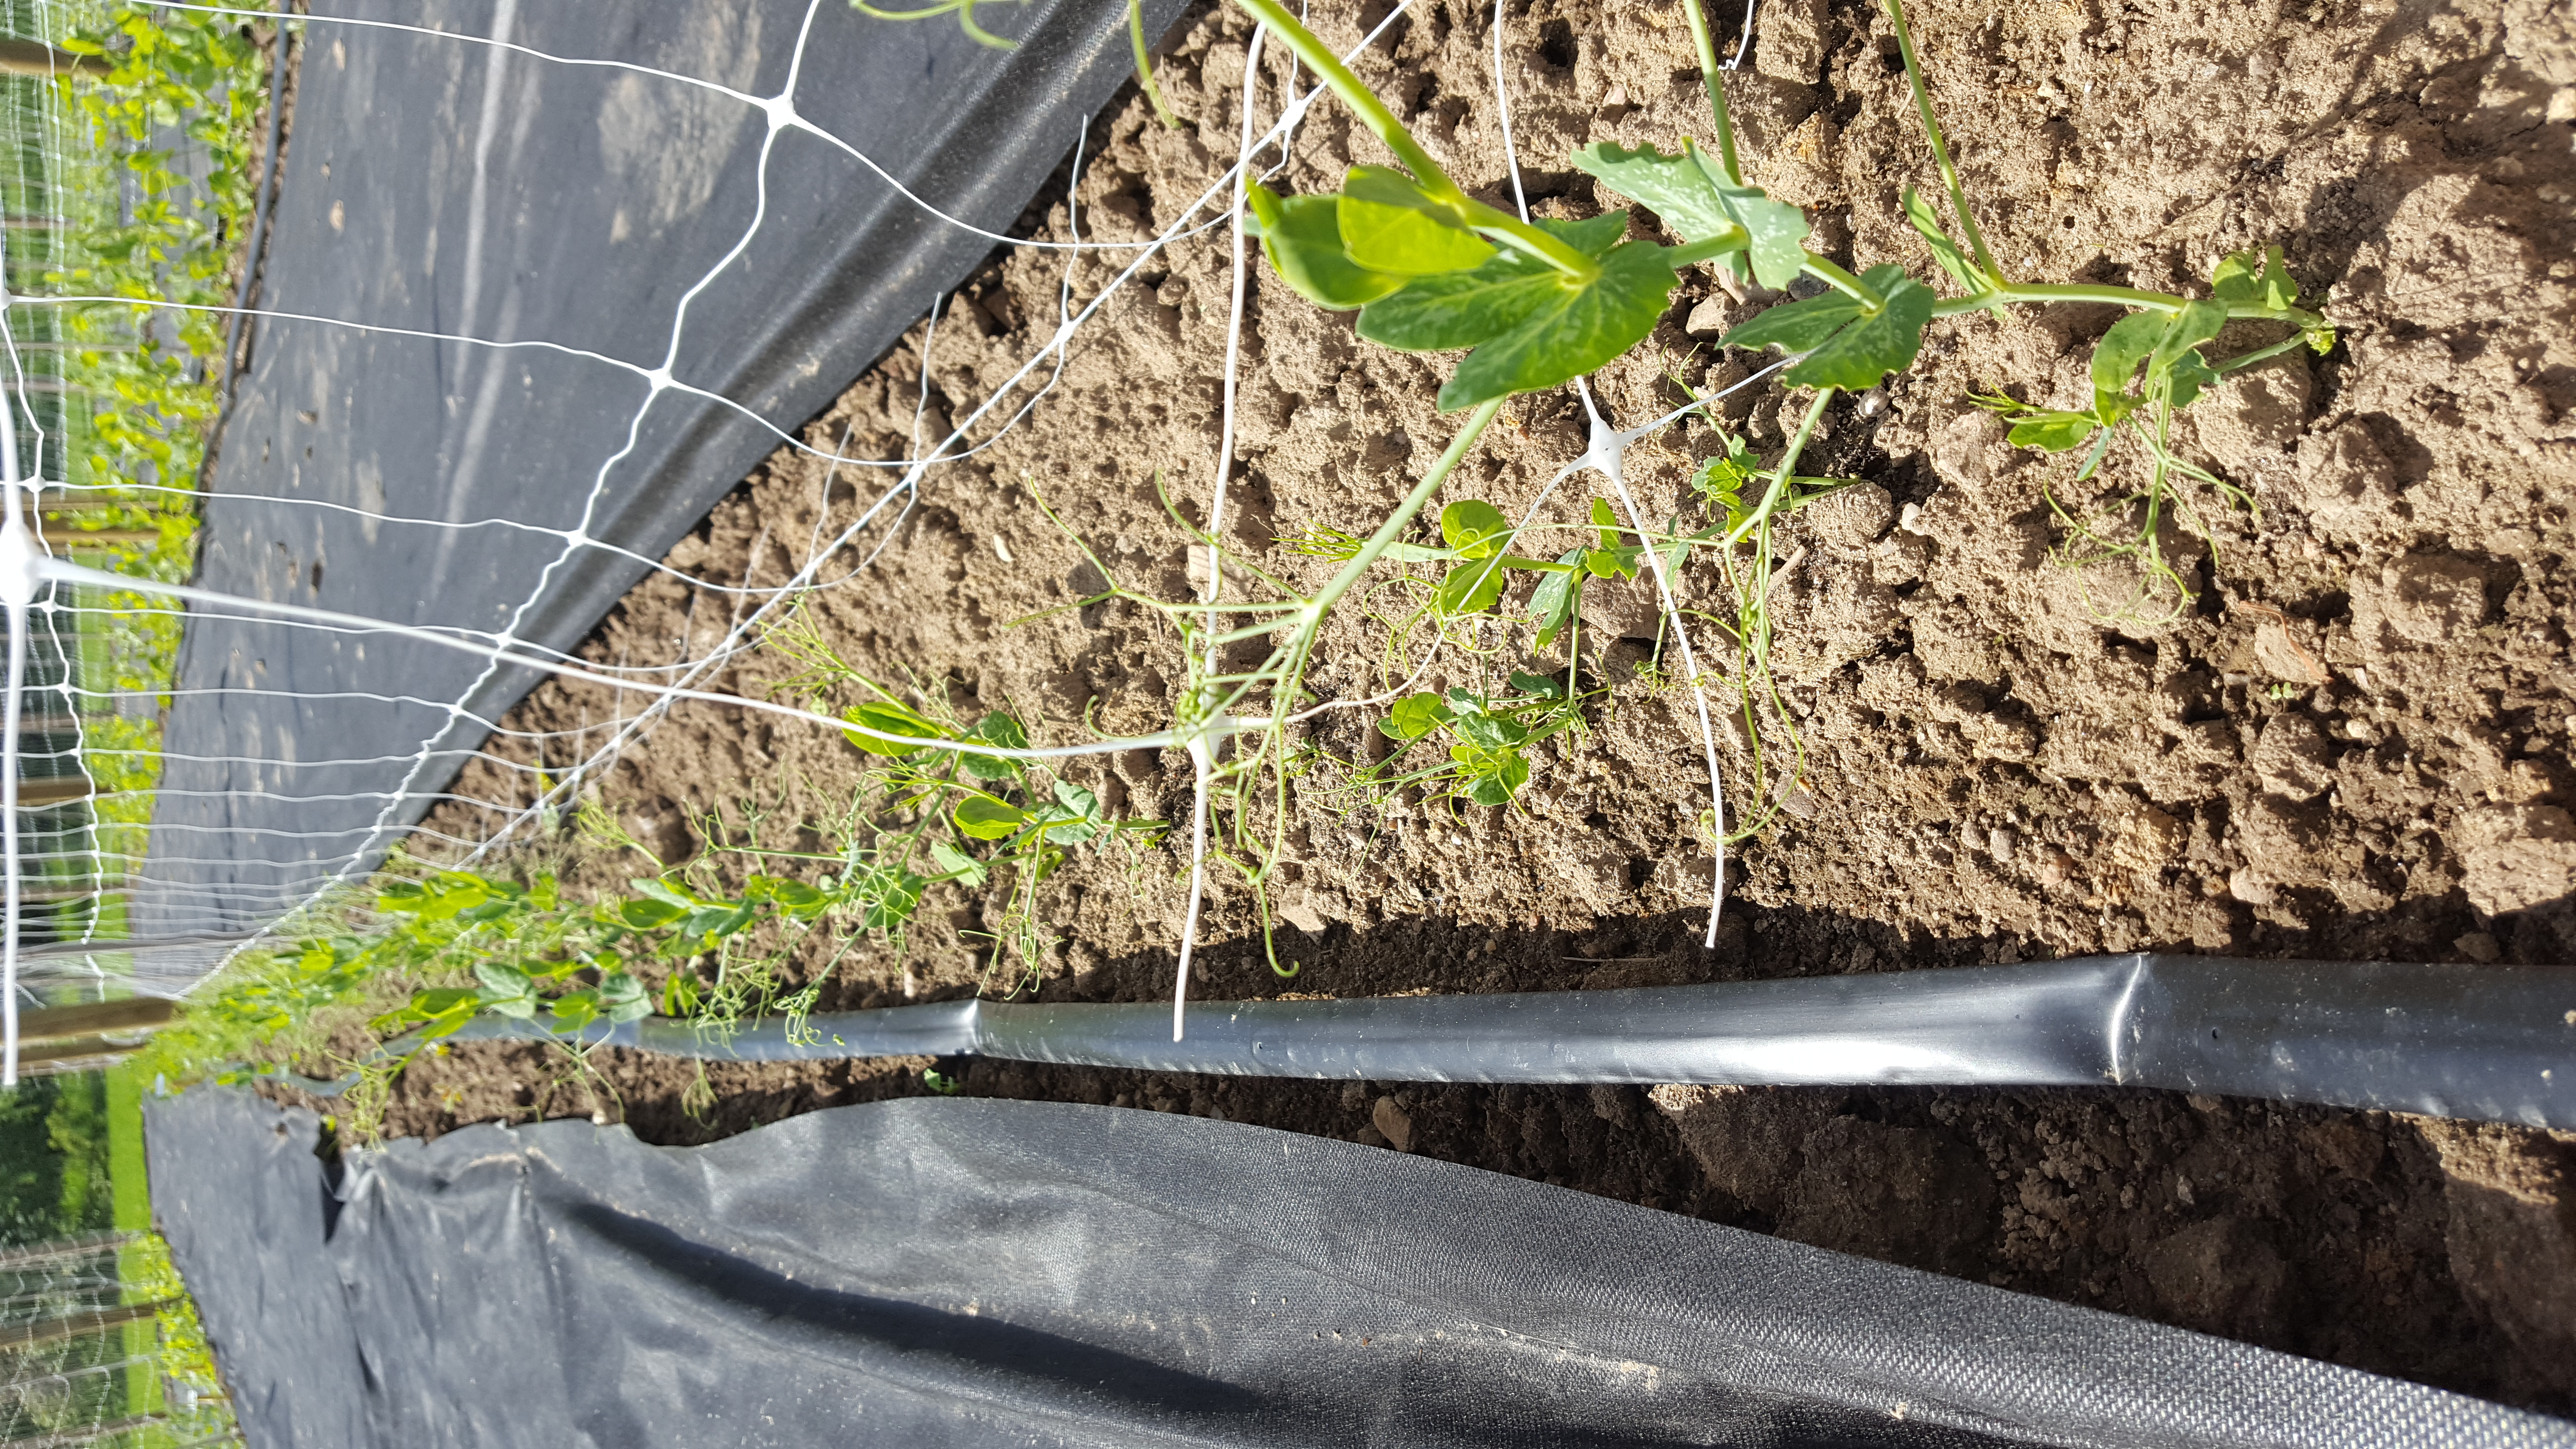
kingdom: Plantae
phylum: Tracheophyta
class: Magnoliopsida
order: Fabales
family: Fabaceae
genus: Lathyrus
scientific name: Lathyrus oleraceus
